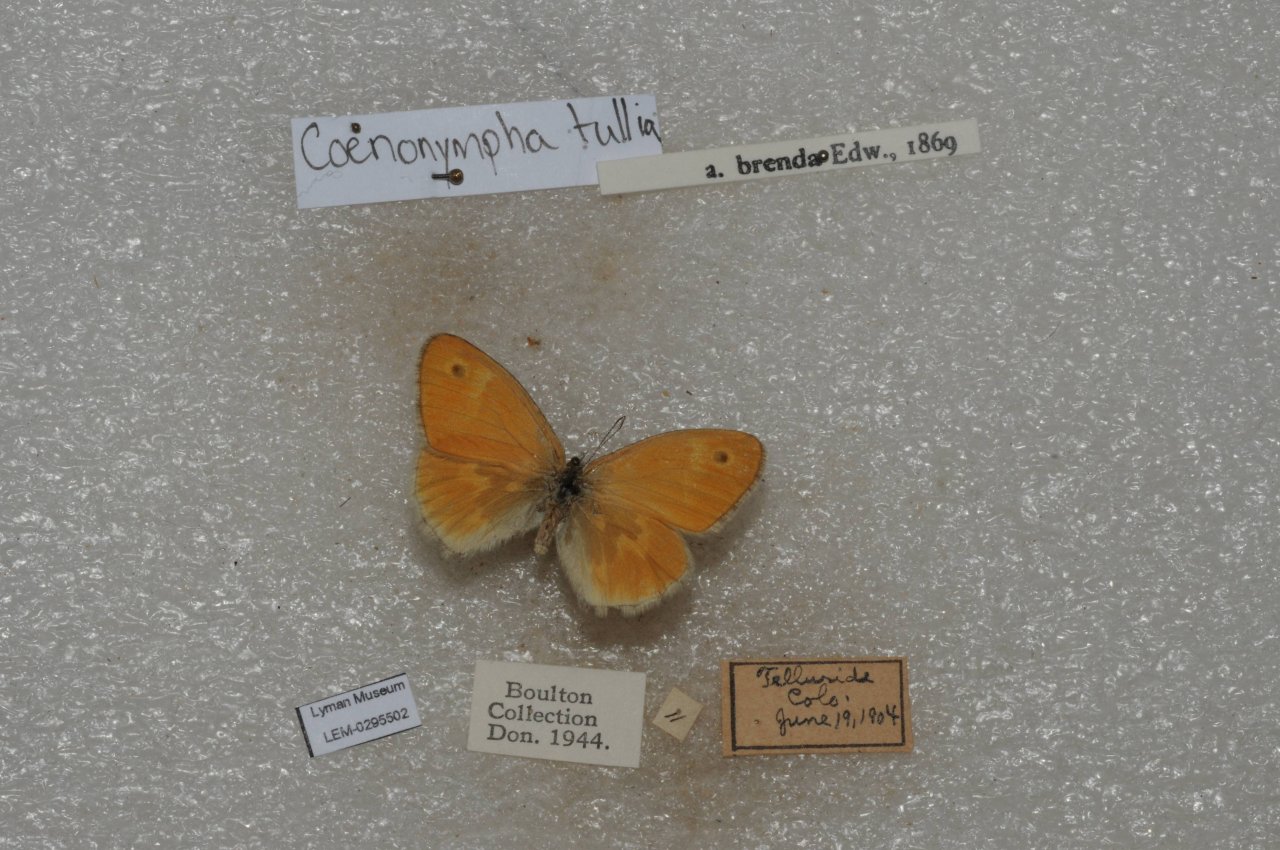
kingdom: Animalia
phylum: Arthropoda
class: Insecta
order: Lepidoptera
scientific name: Lepidoptera
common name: Butterflies
